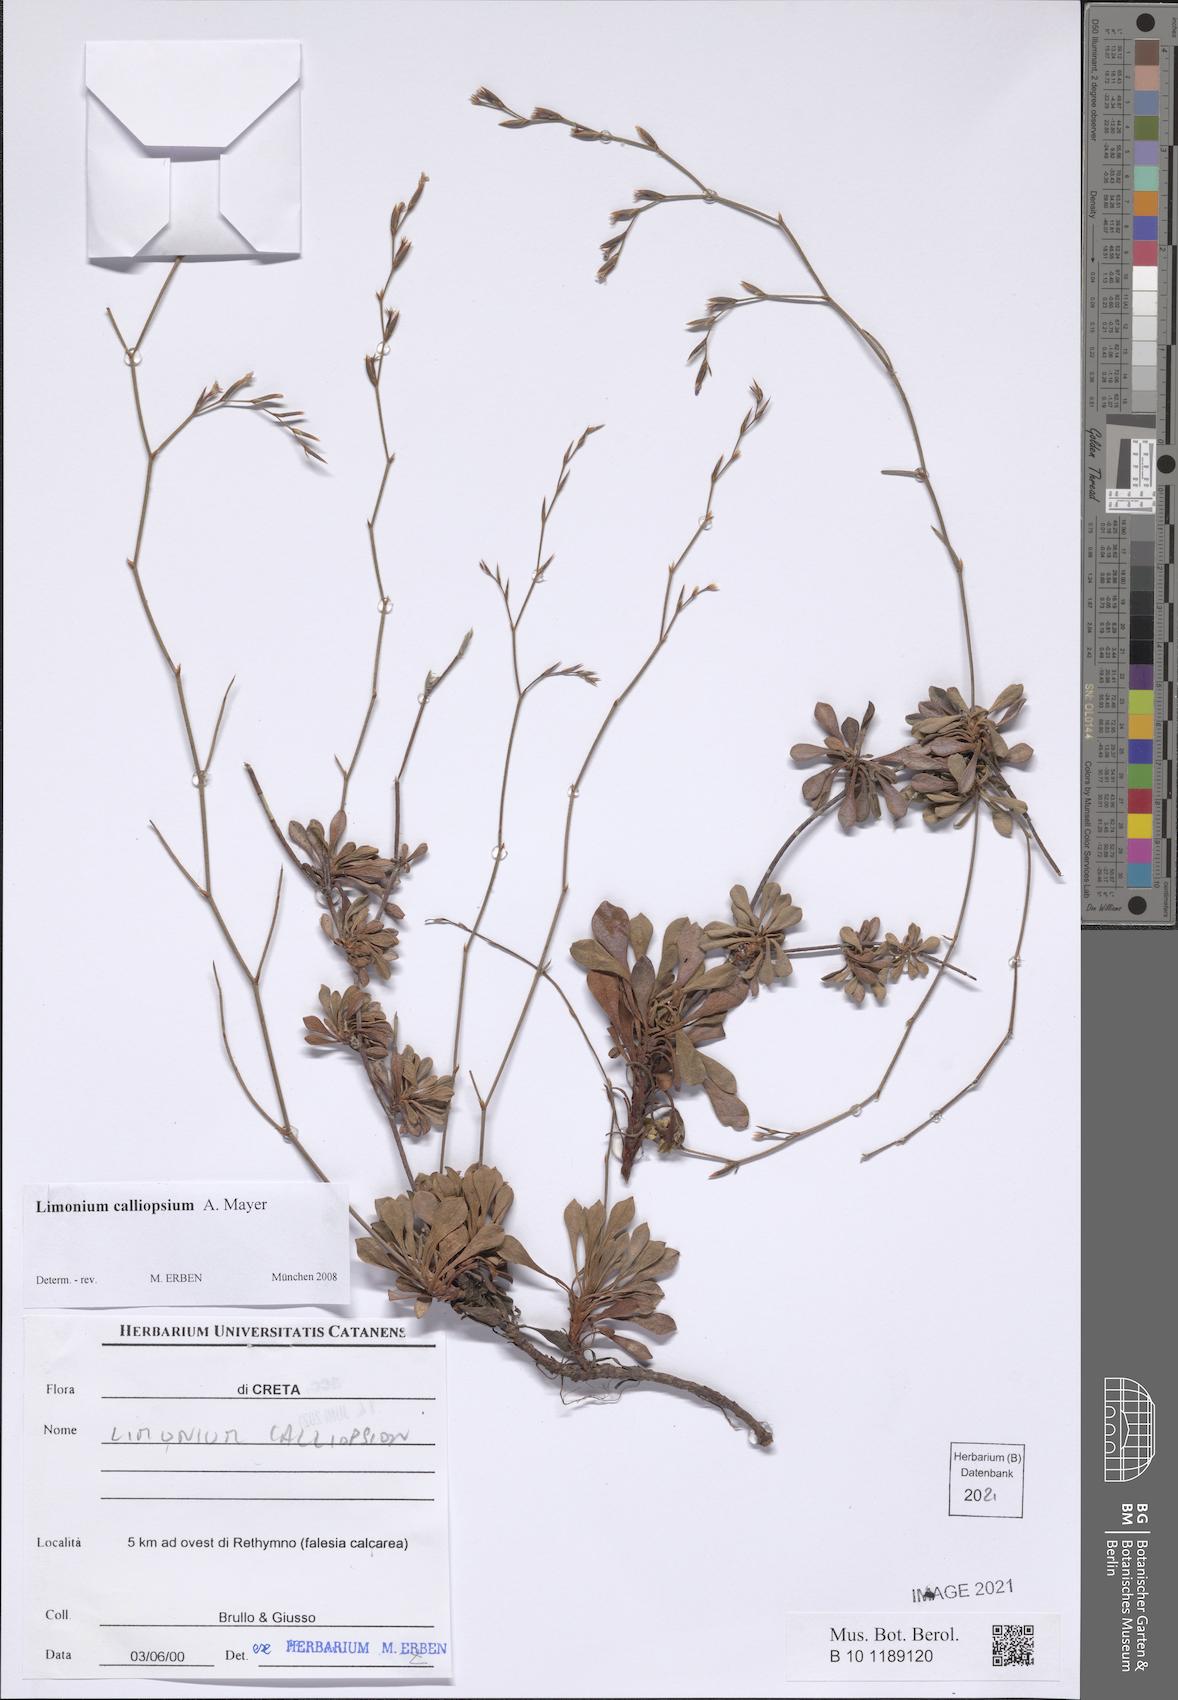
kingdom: Plantae
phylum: Tracheophyta
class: Magnoliopsida
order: Caryophyllales
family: Plumbaginaceae
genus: Limonium
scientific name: Limonium calliopsium
